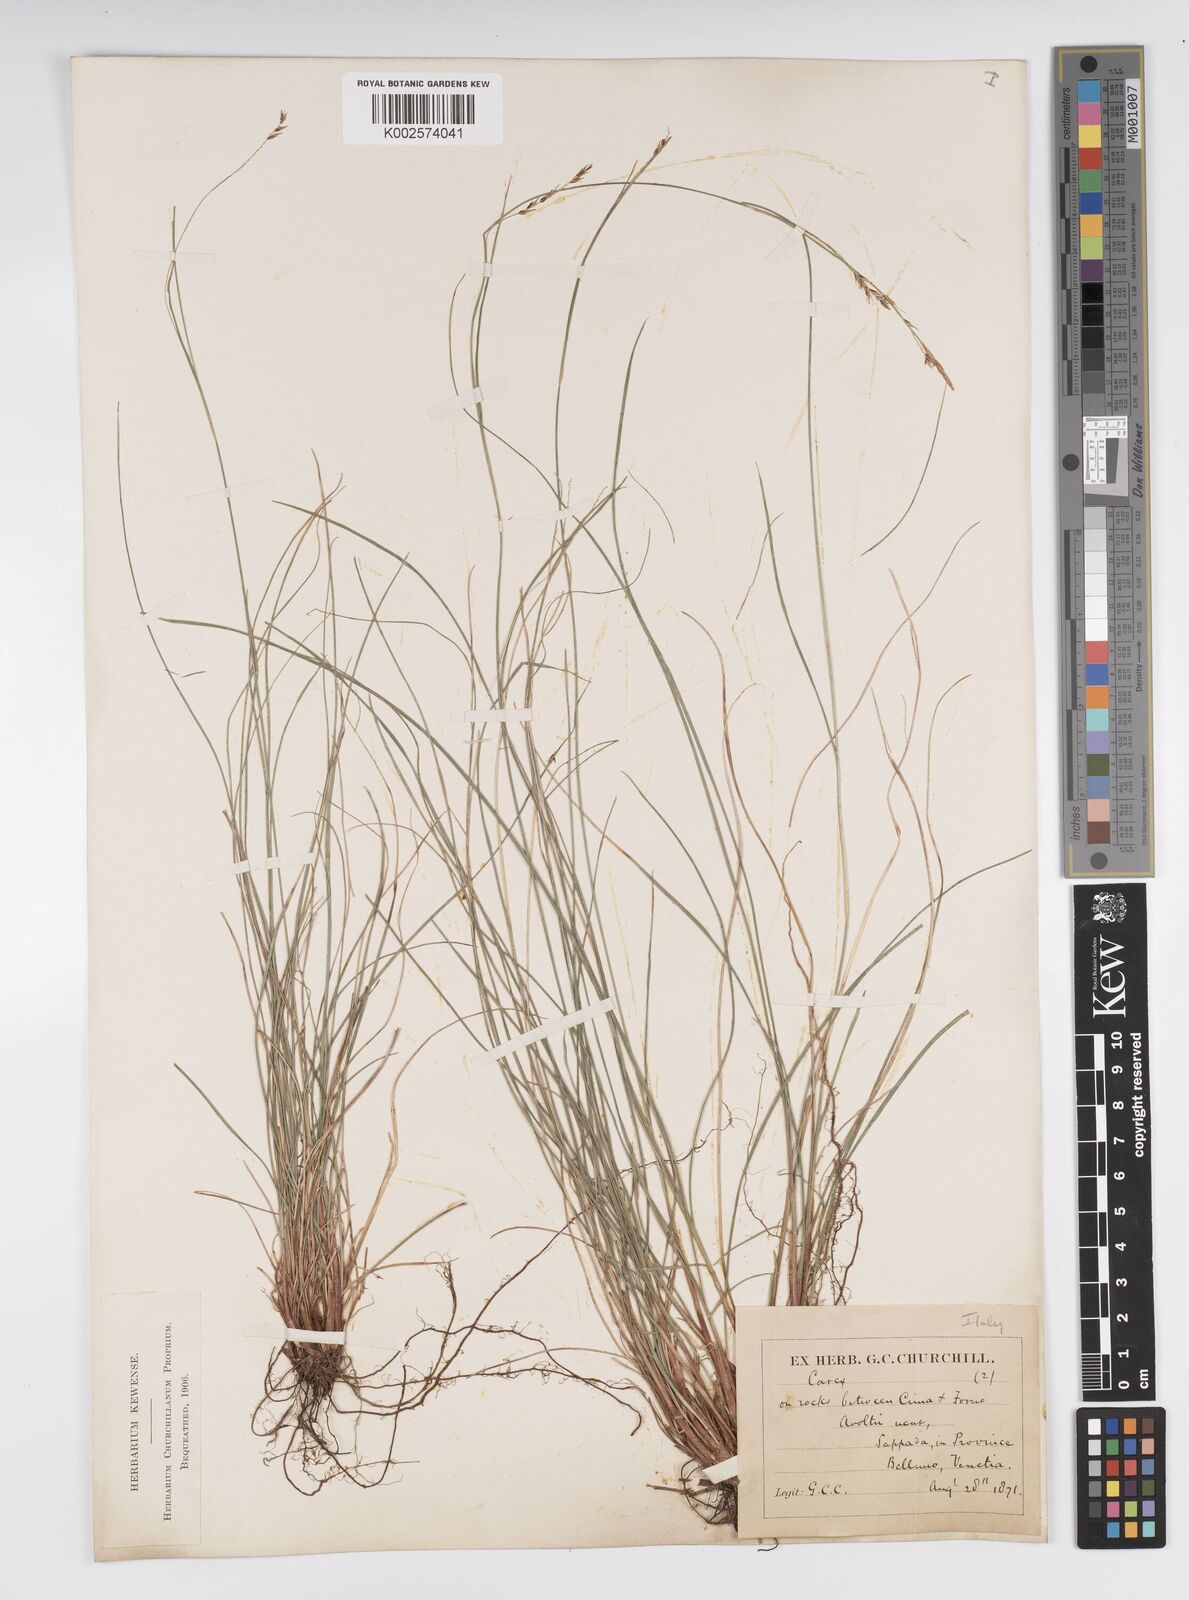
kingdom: Plantae
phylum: Tracheophyta
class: Liliopsida
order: Poales
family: Cyperaceae
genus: Carex
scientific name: Carex brachystachys
